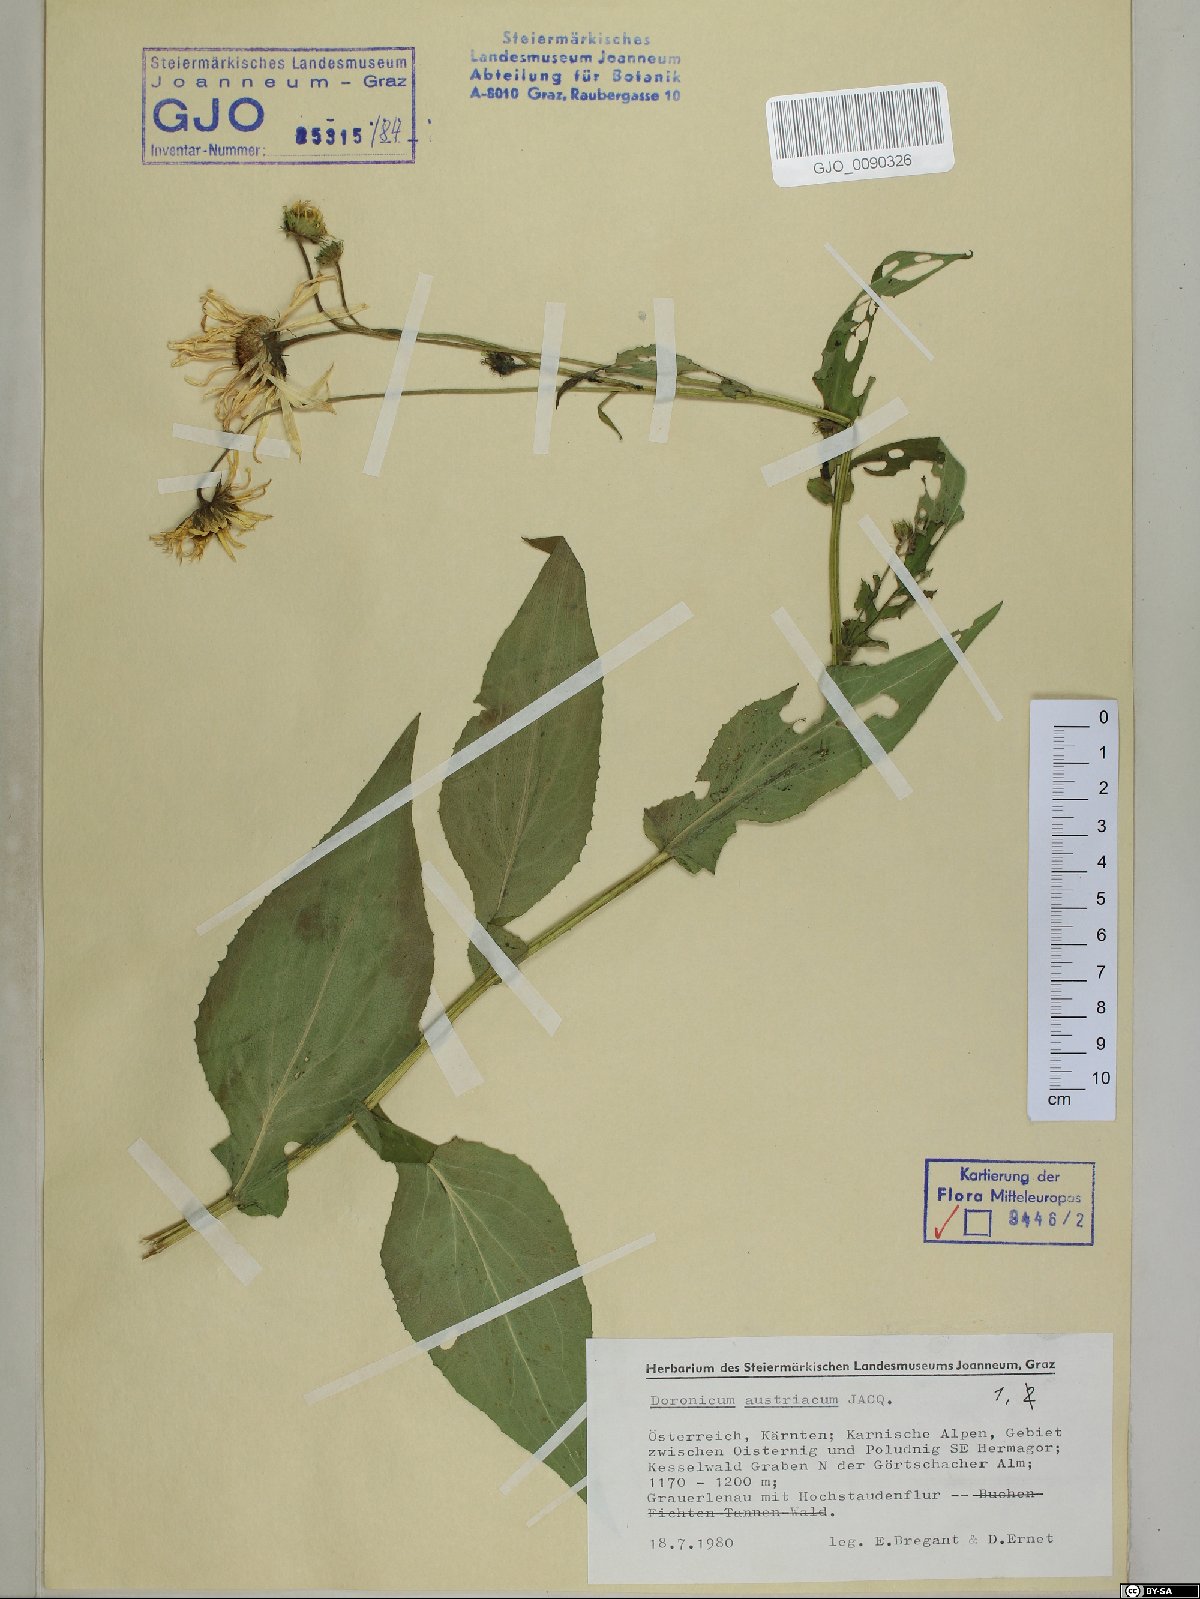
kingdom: Plantae
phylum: Tracheophyta
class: Magnoliopsida
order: Asterales
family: Asteraceae
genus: Doronicum
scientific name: Doronicum austriacum
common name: Austrian leopard's-bane
